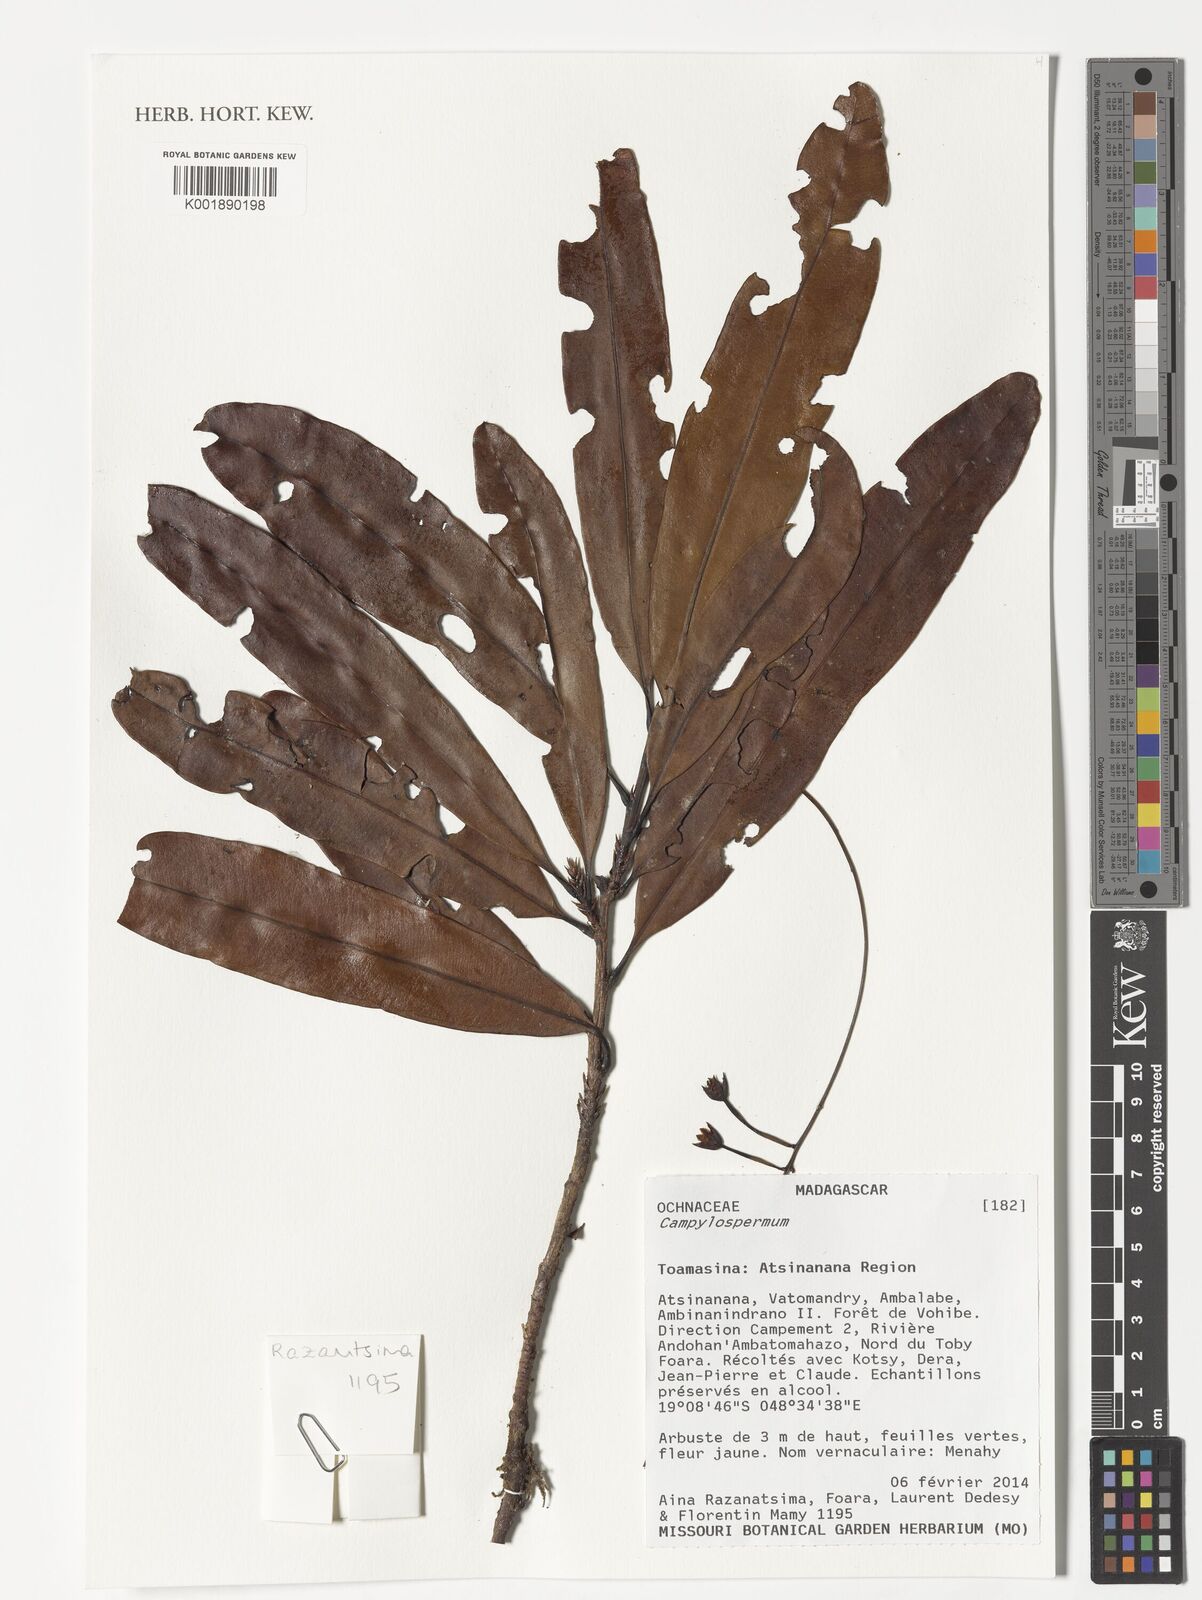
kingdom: Plantae
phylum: Tracheophyta
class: Magnoliopsida
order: Malpighiales
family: Ochnaceae
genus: Campylospermum
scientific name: Campylospermum
